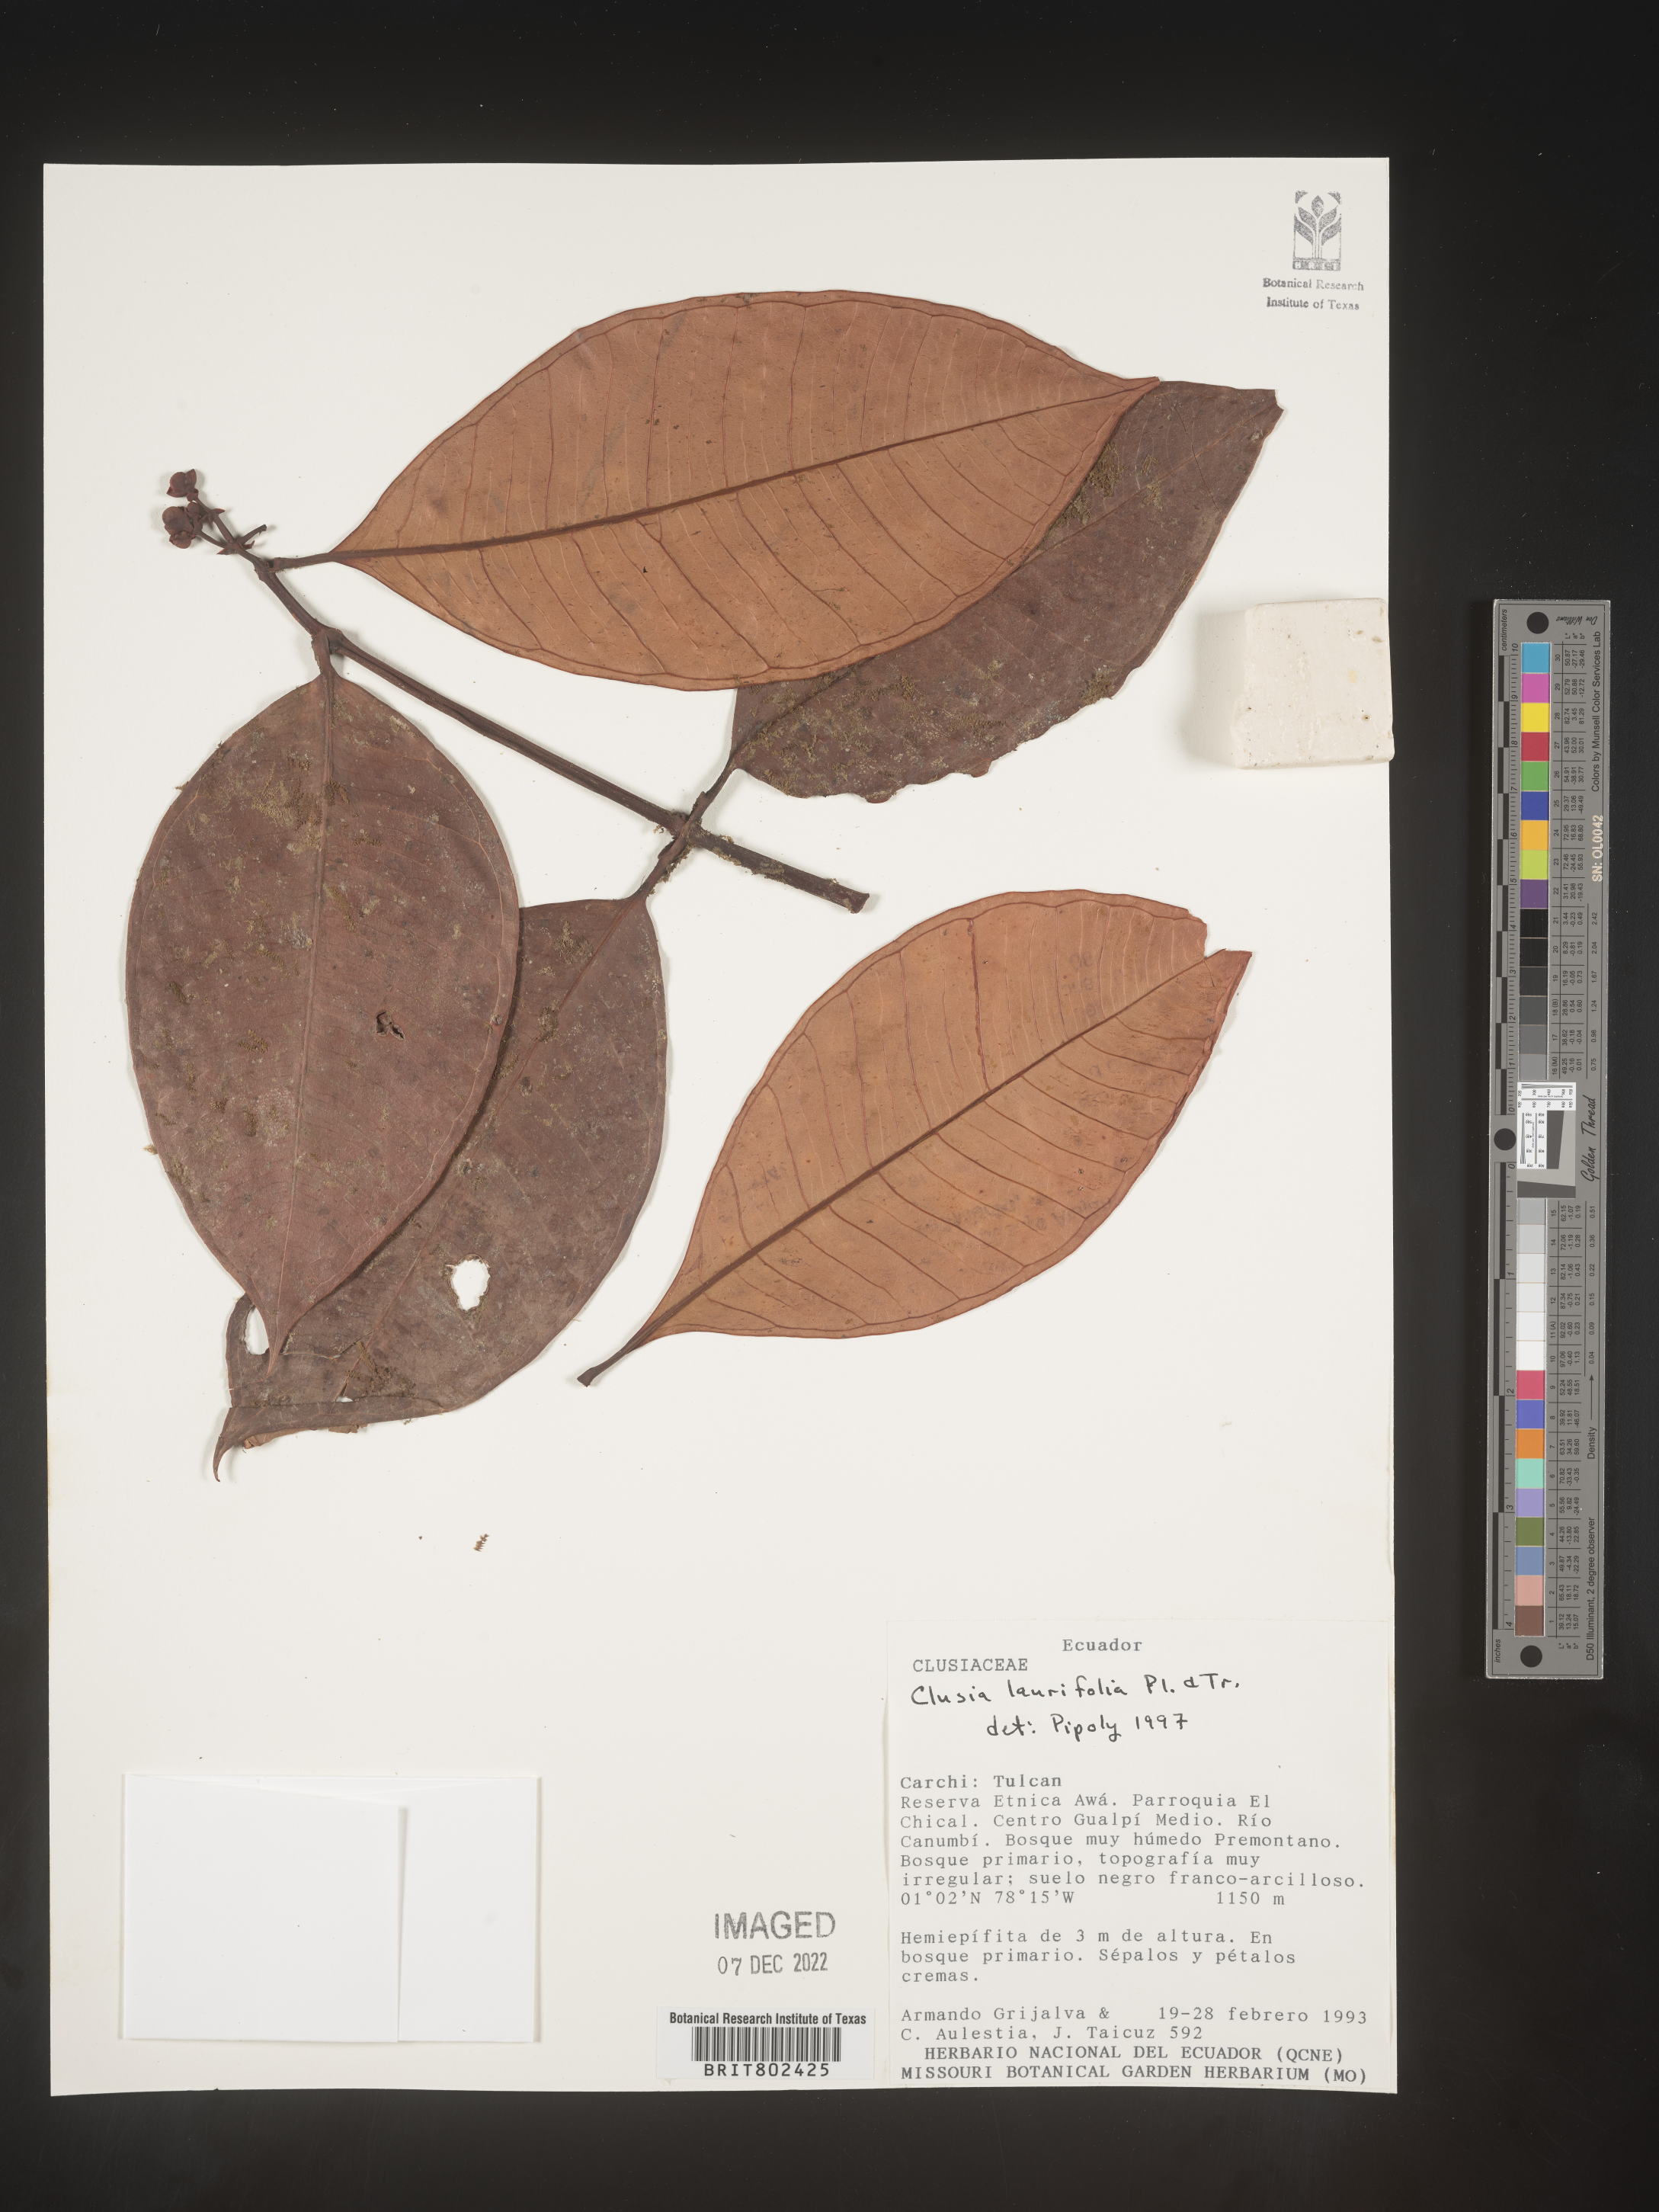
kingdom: Plantae
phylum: Tracheophyta
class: Magnoliopsida
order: Malpighiales
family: Clusiaceae
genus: Clusia
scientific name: Clusia laurifolia
